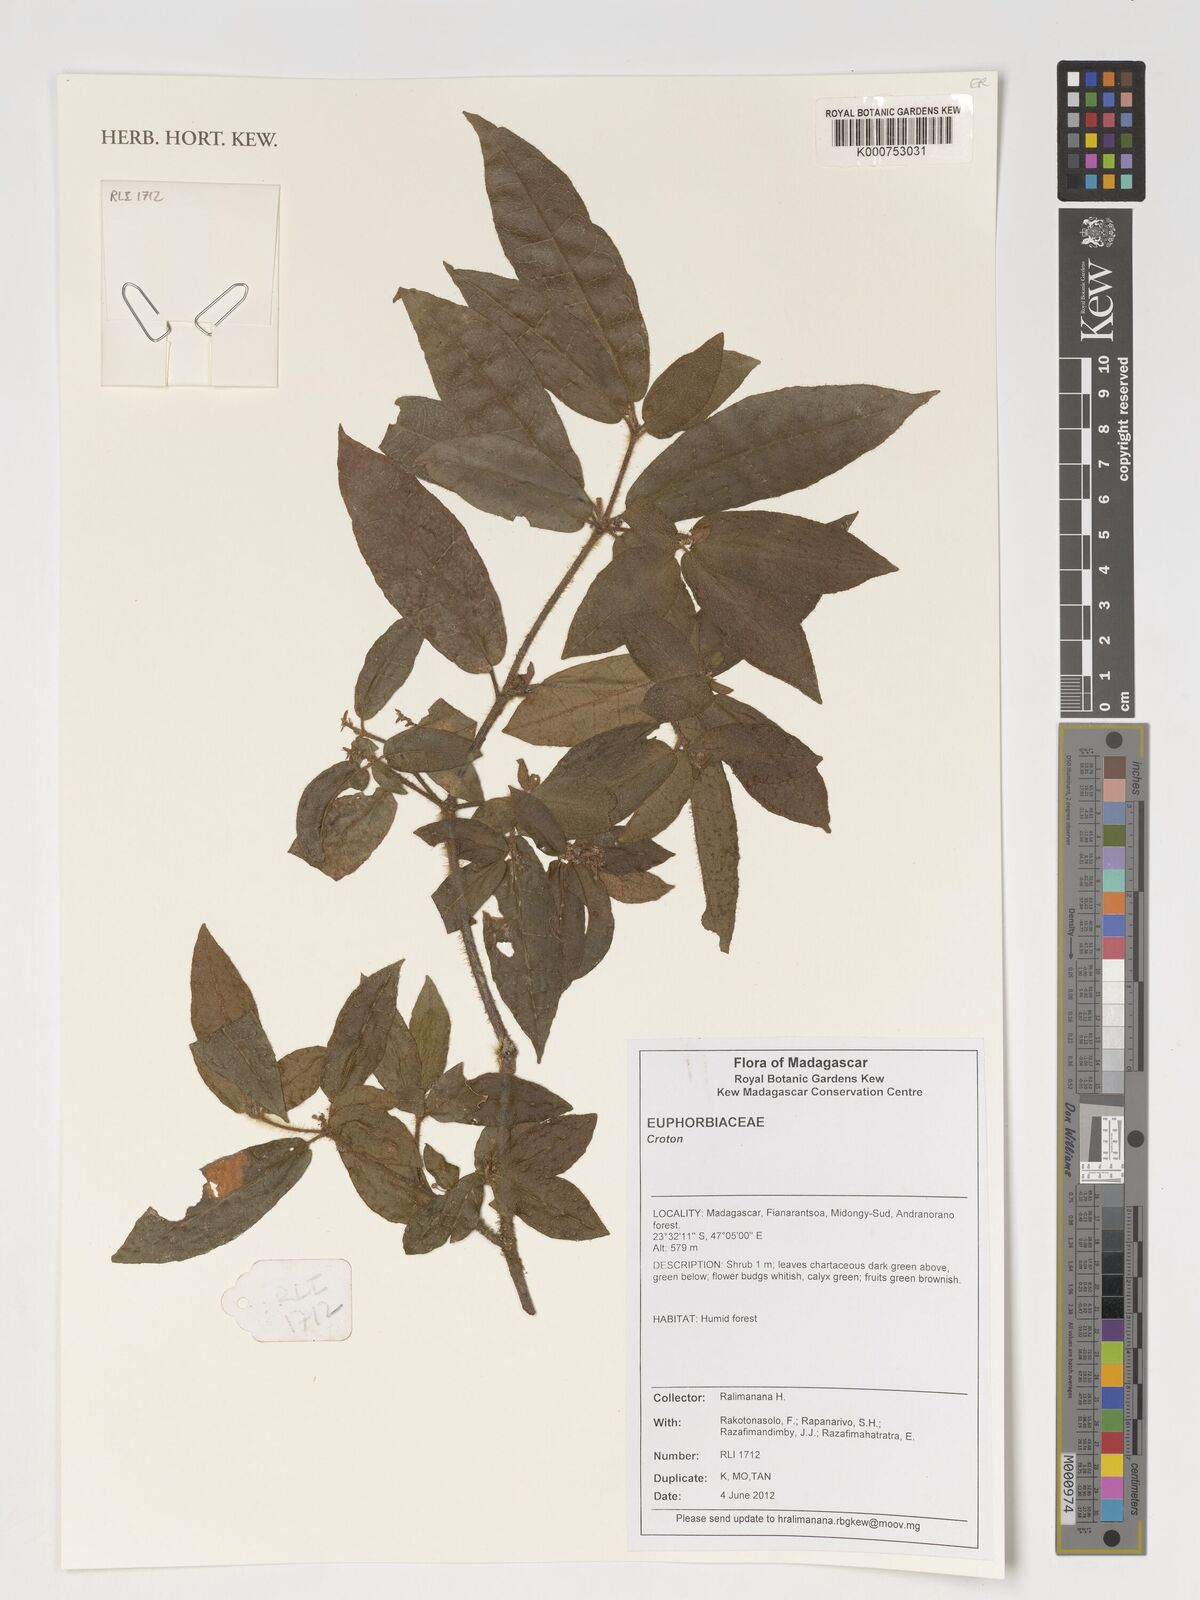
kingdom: Plantae
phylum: Tracheophyta
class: Magnoliopsida
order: Malpighiales
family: Euphorbiaceae
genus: Croton
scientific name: Croton
